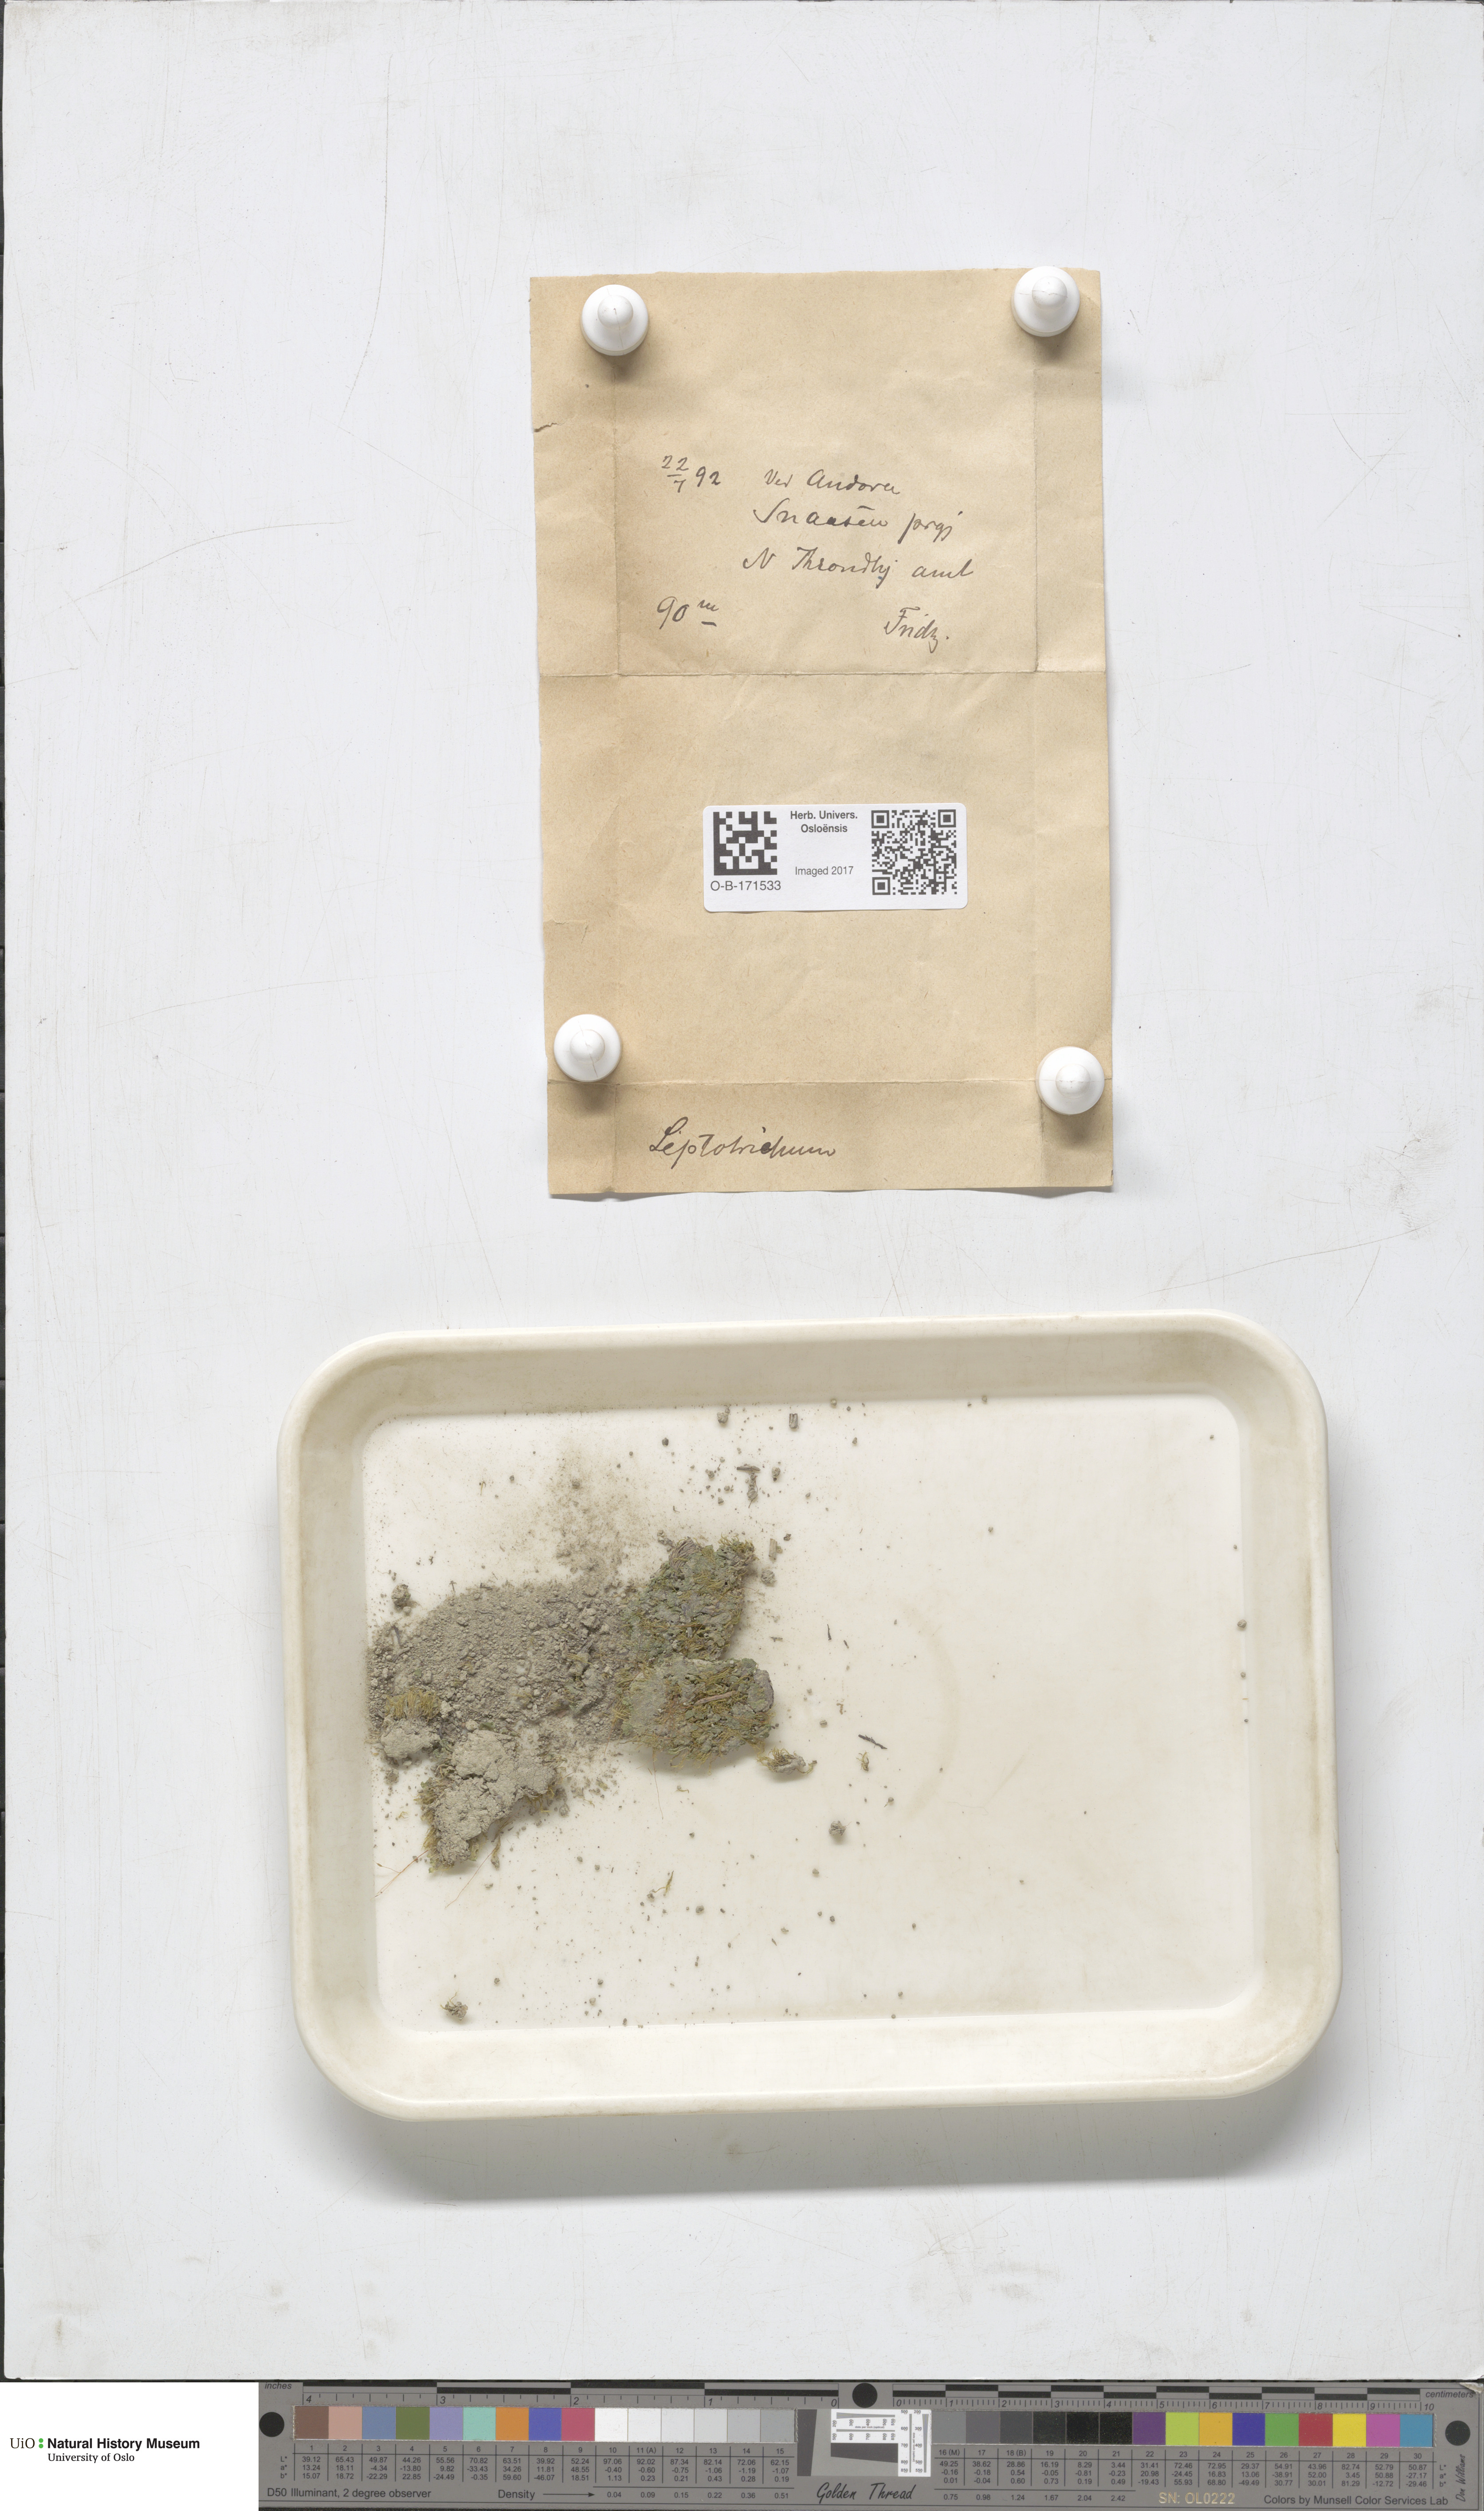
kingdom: Plantae
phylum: Bryophyta
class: Bryopsida
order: Dicranales
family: Ditrichaceae
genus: Ditrichum
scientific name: Ditrichum heteromallum
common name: Curve-leaved ditrichum
